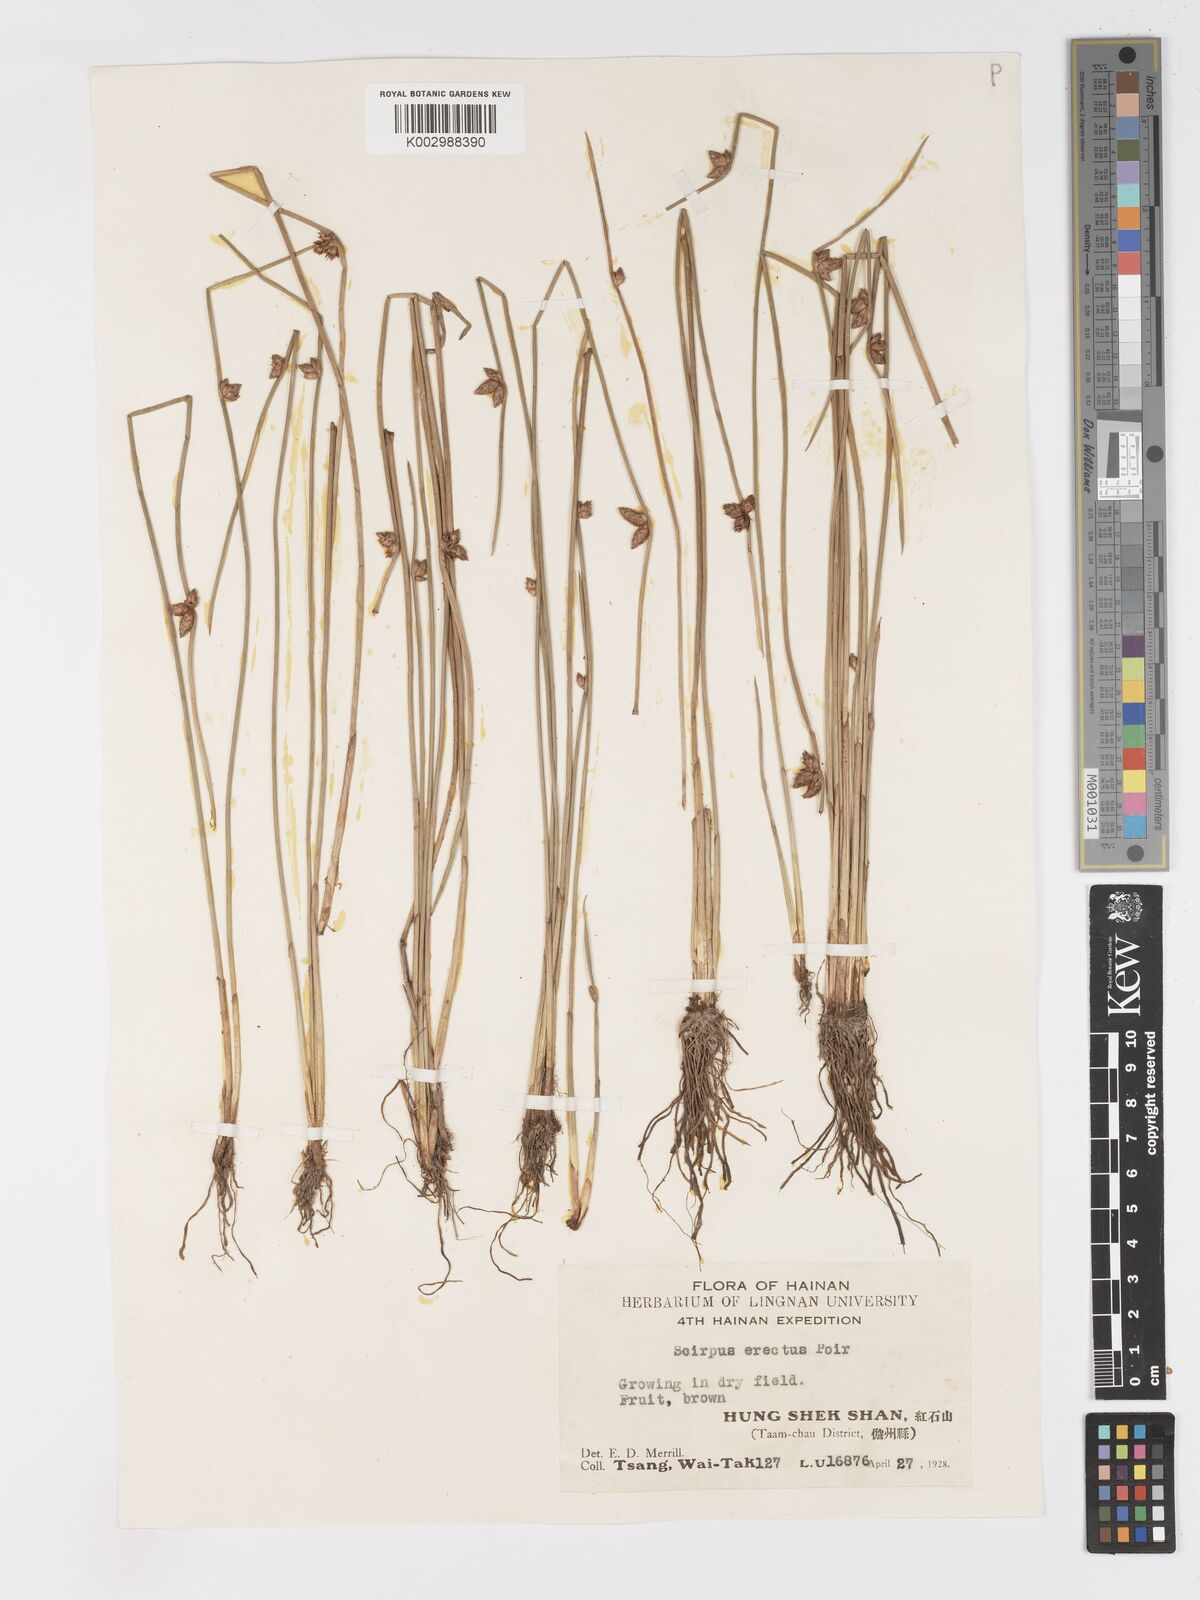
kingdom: Plantae
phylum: Tracheophyta
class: Liliopsida
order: Poales
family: Cyperaceae
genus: Schoenoplectiella
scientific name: Schoenoplectiella erecta
